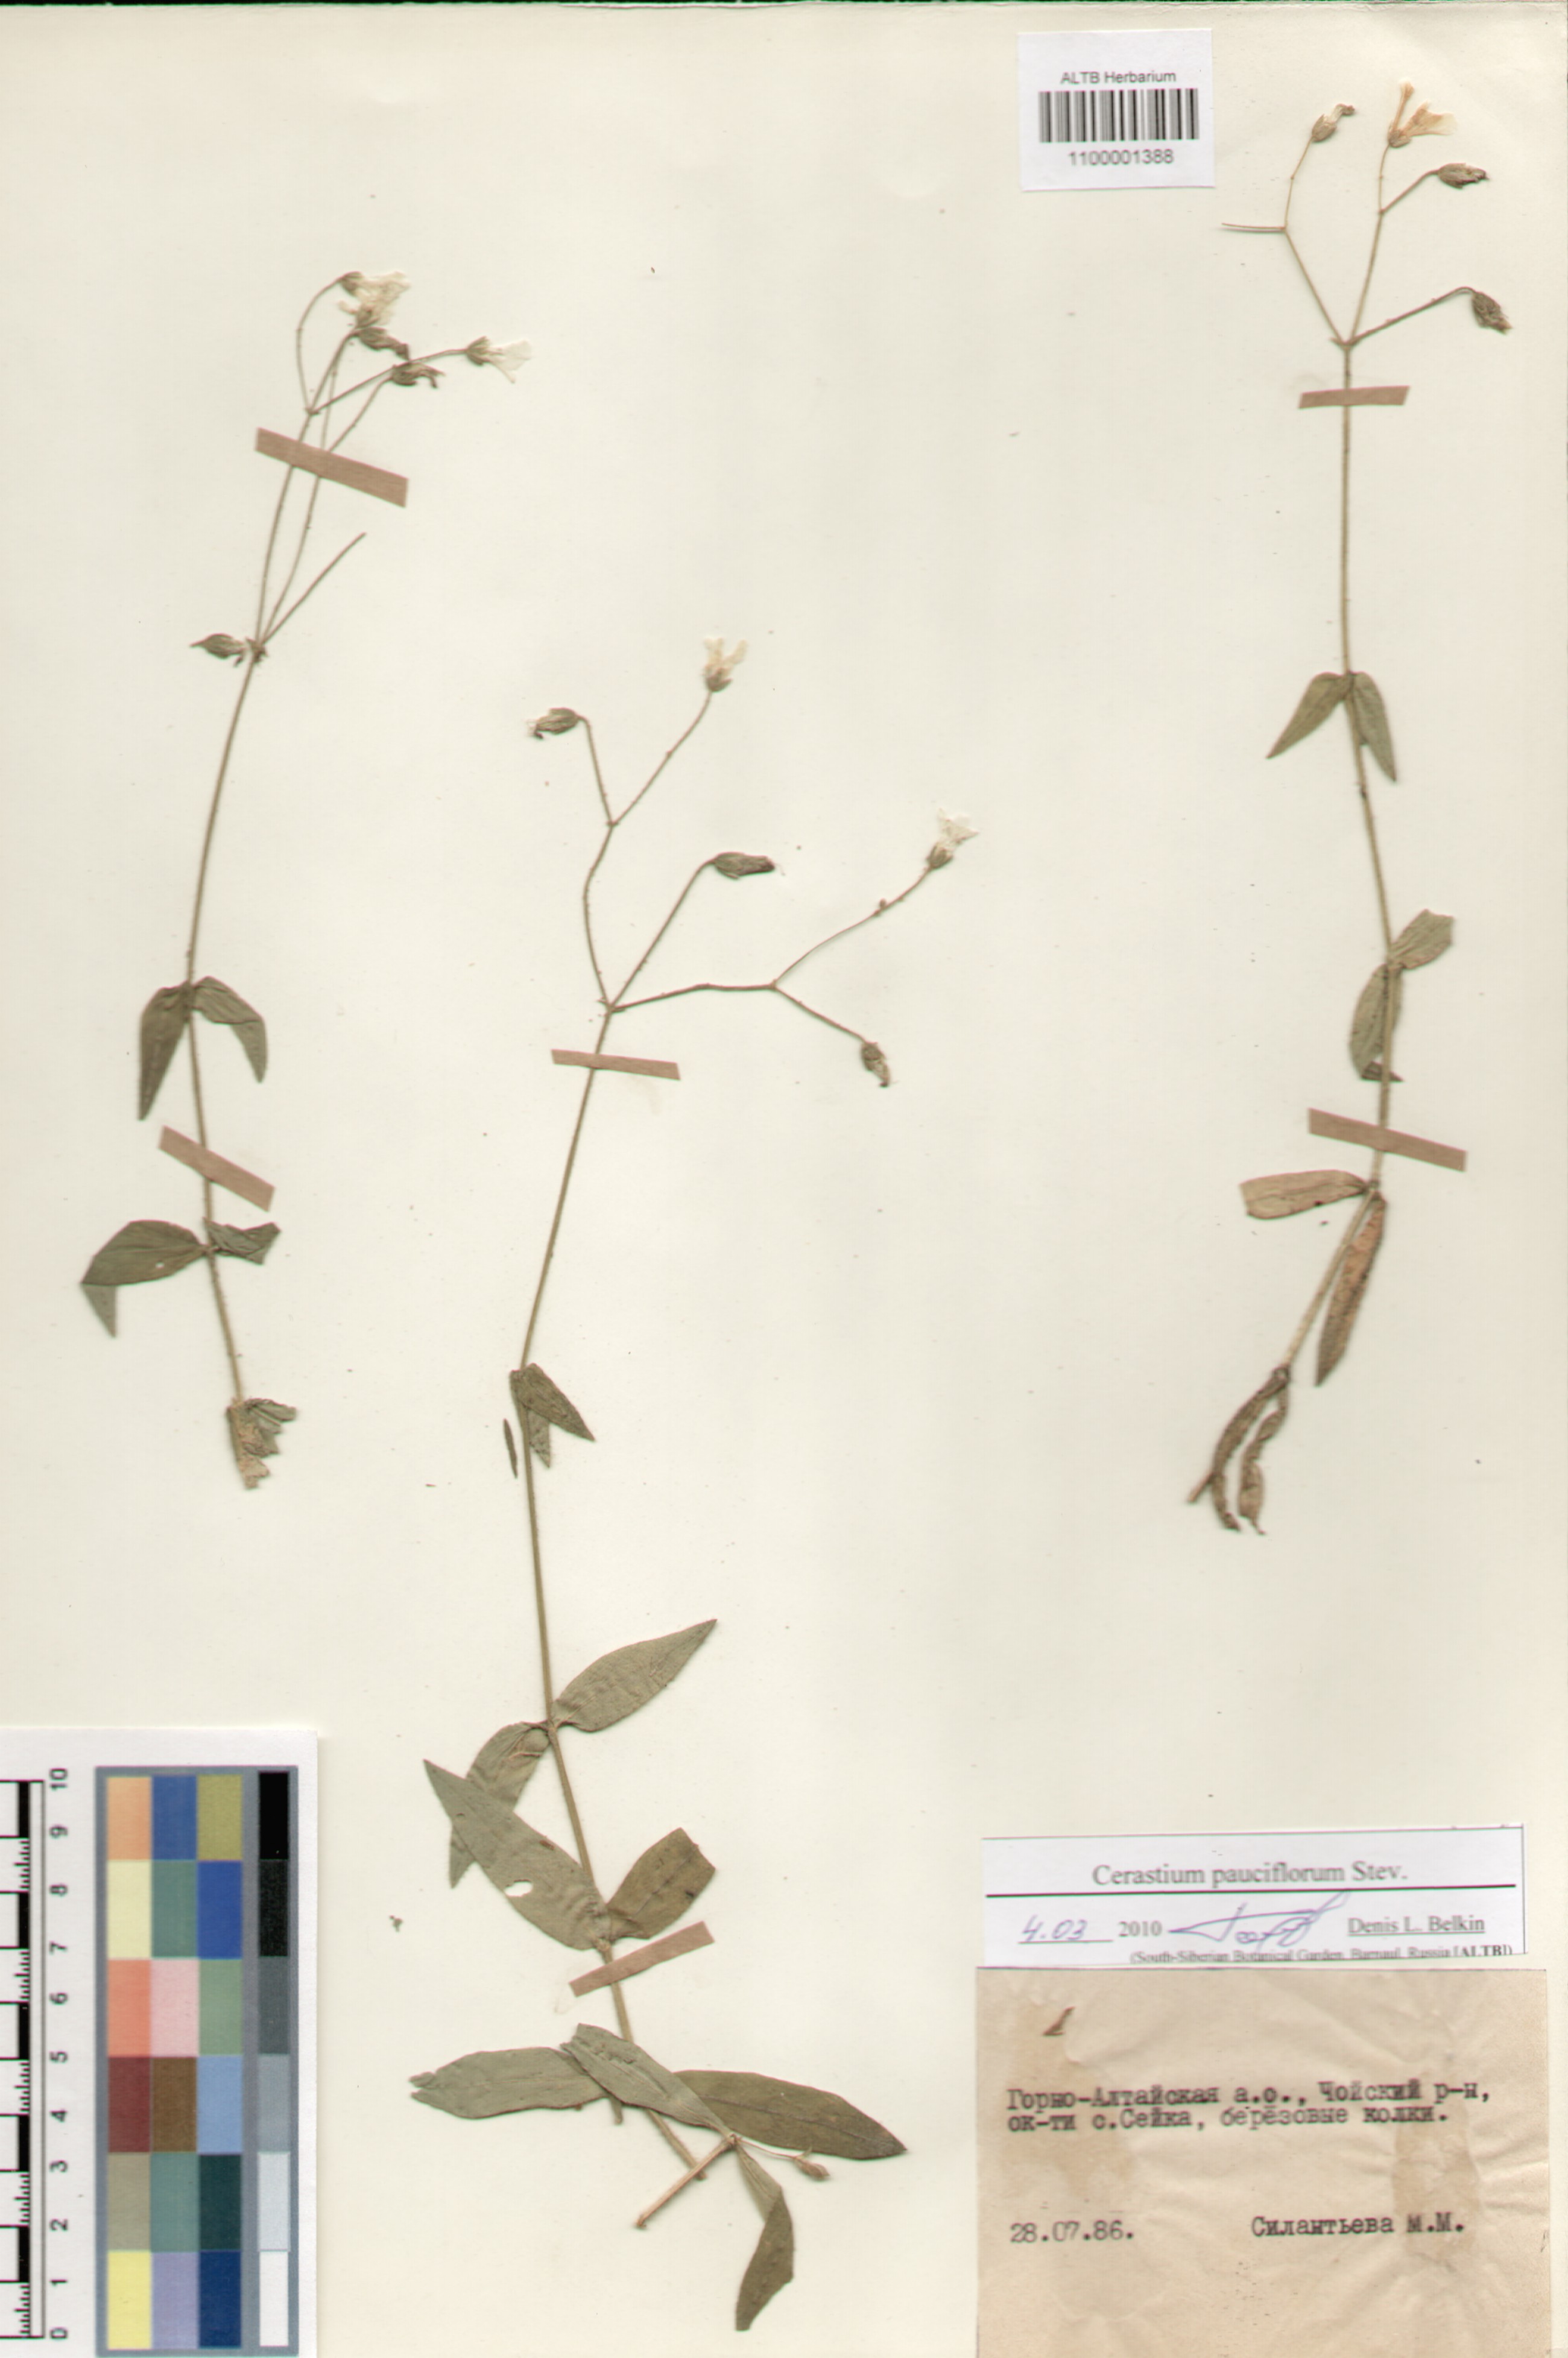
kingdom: Plantae
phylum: Tracheophyta
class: Magnoliopsida
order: Caryophyllales
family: Caryophyllaceae
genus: Cerastium
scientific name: Cerastium pauciflorum
